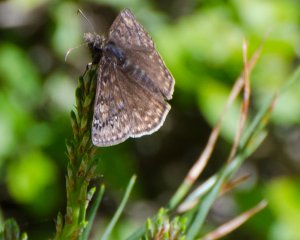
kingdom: Animalia
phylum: Arthropoda
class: Insecta
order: Lepidoptera
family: Hesperiidae
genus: Gesta
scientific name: Gesta
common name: Juvenal's Duskywing
